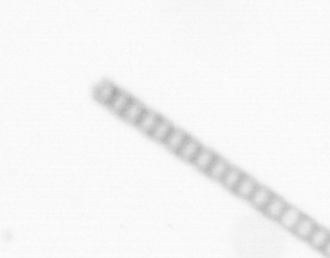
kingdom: Chromista
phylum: Ochrophyta
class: Bacillariophyceae
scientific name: Bacillariophyceae
